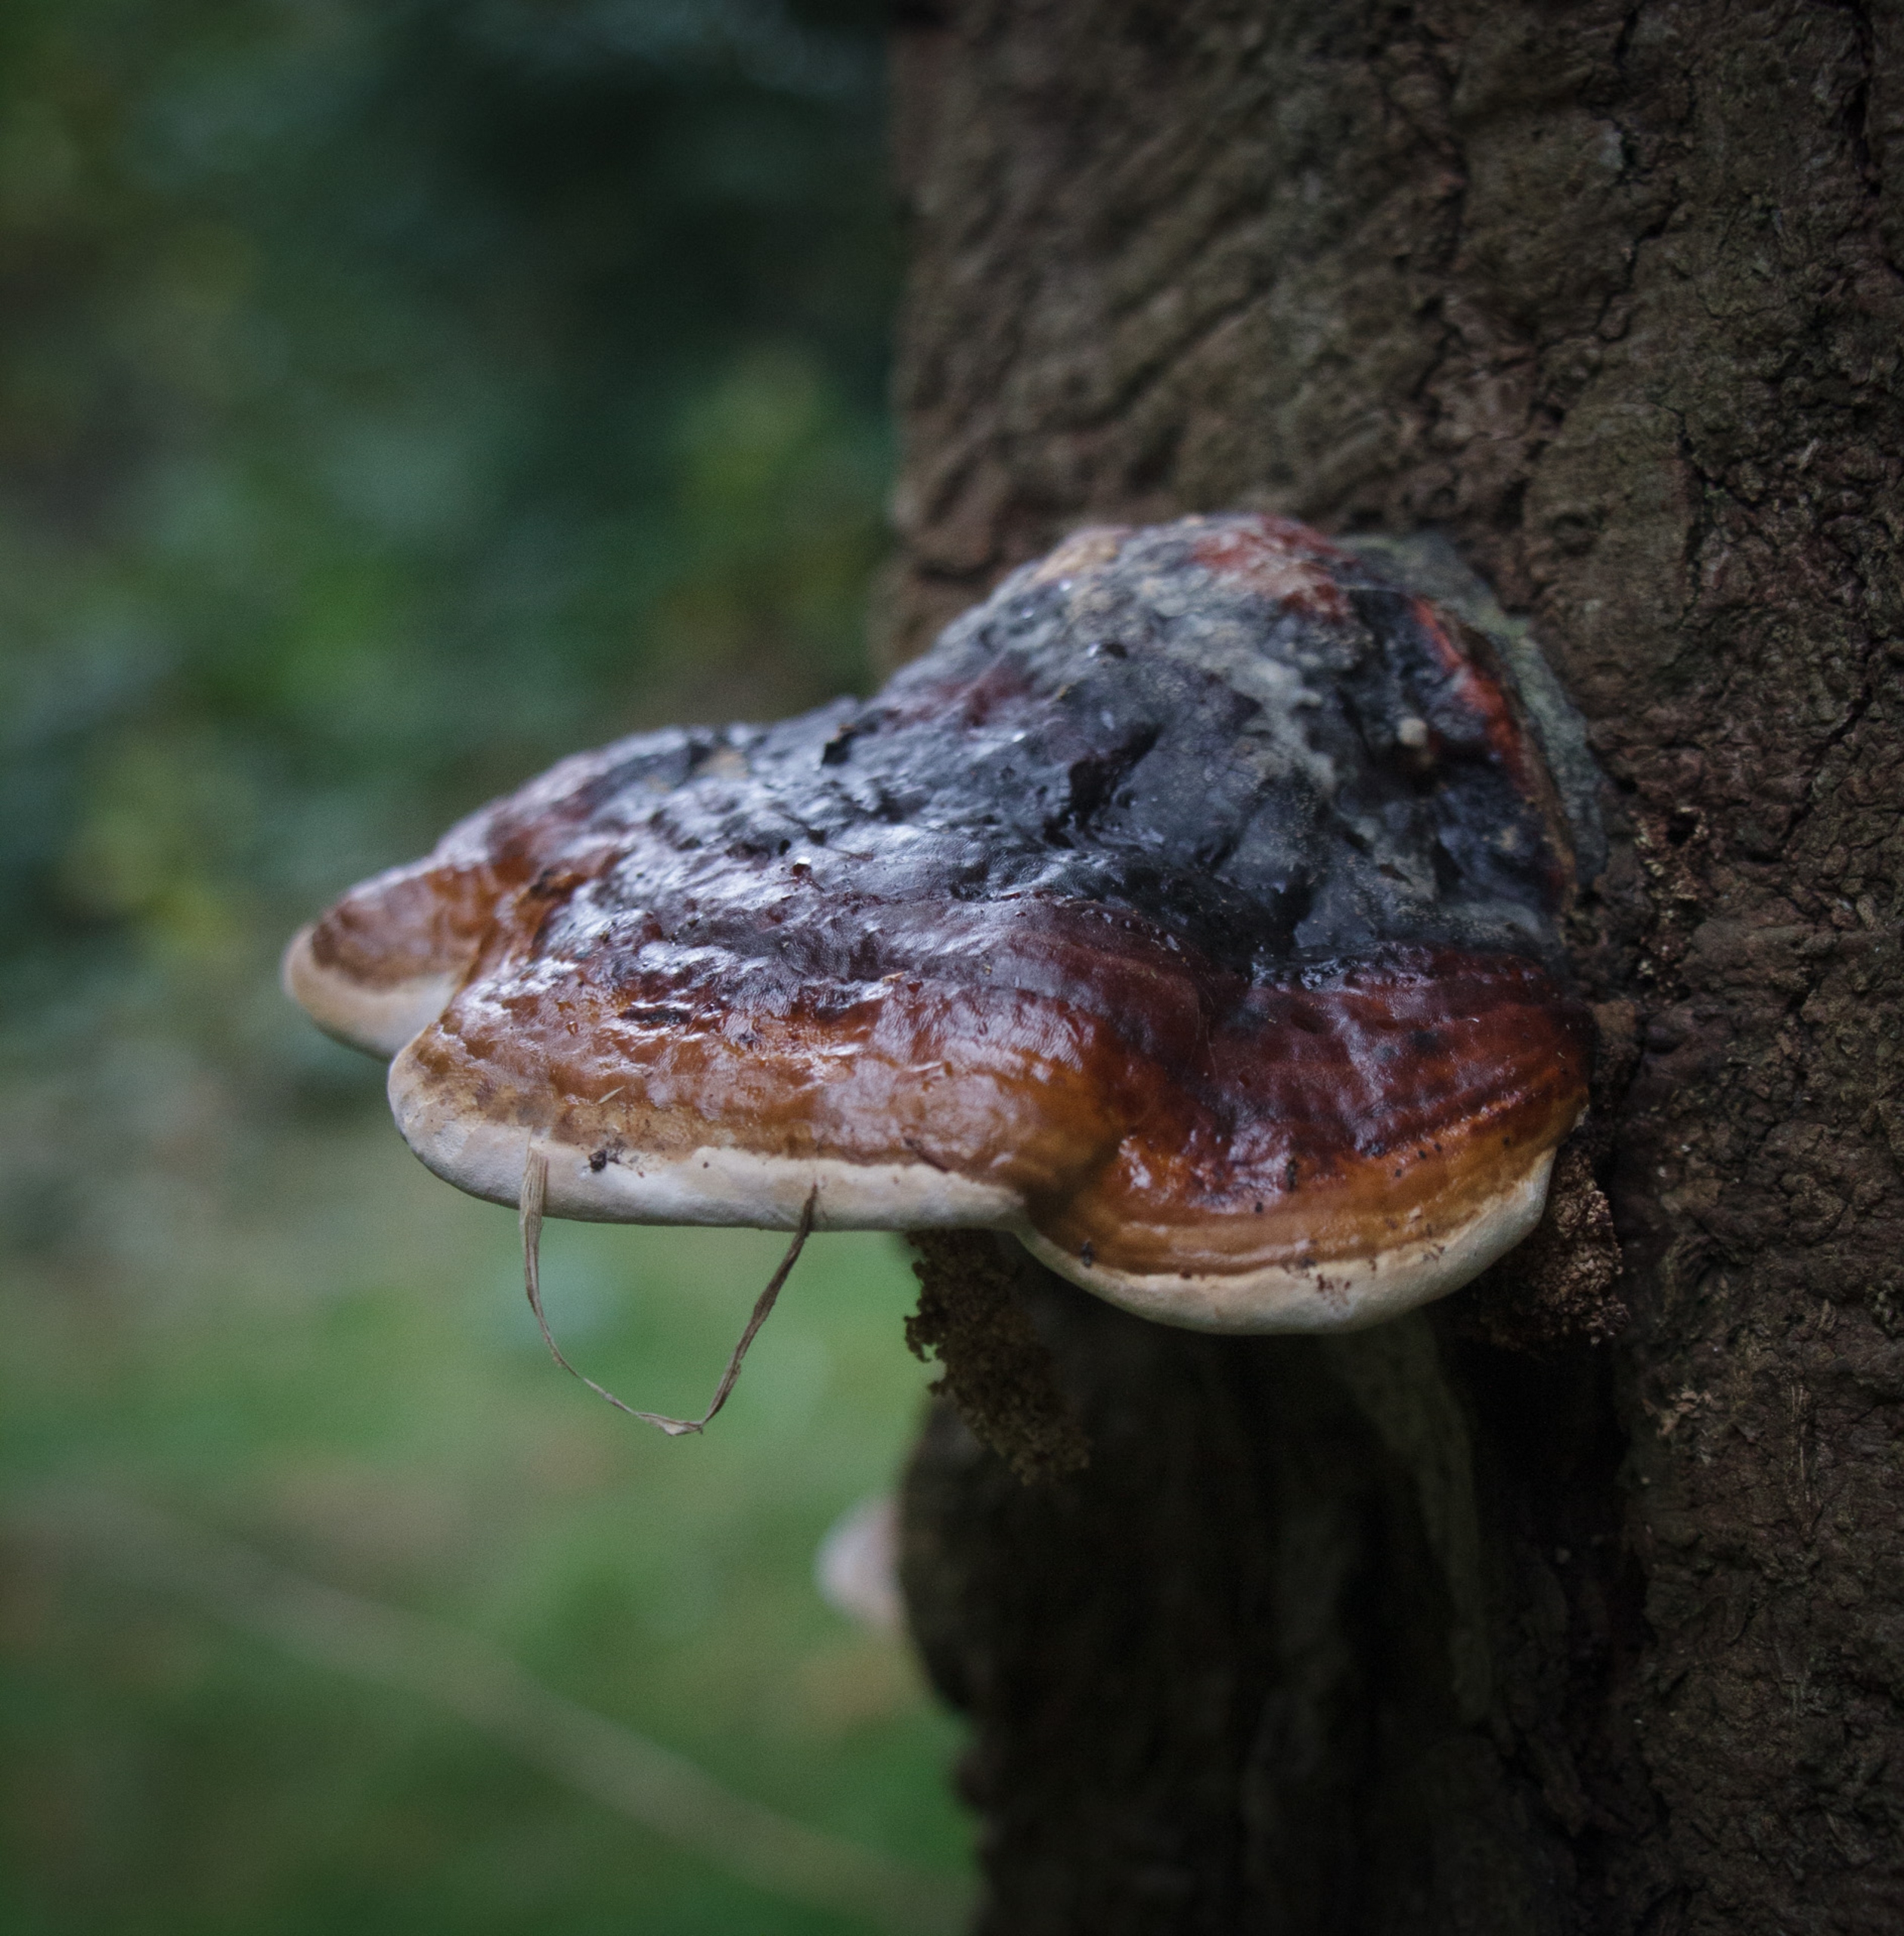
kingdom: Fungi
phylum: Basidiomycota
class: Agaricomycetes
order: Polyporales
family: Fomitopsidaceae
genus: Fomitopsis
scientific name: Fomitopsis pinicola
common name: Randbæltet hovporesvamp
